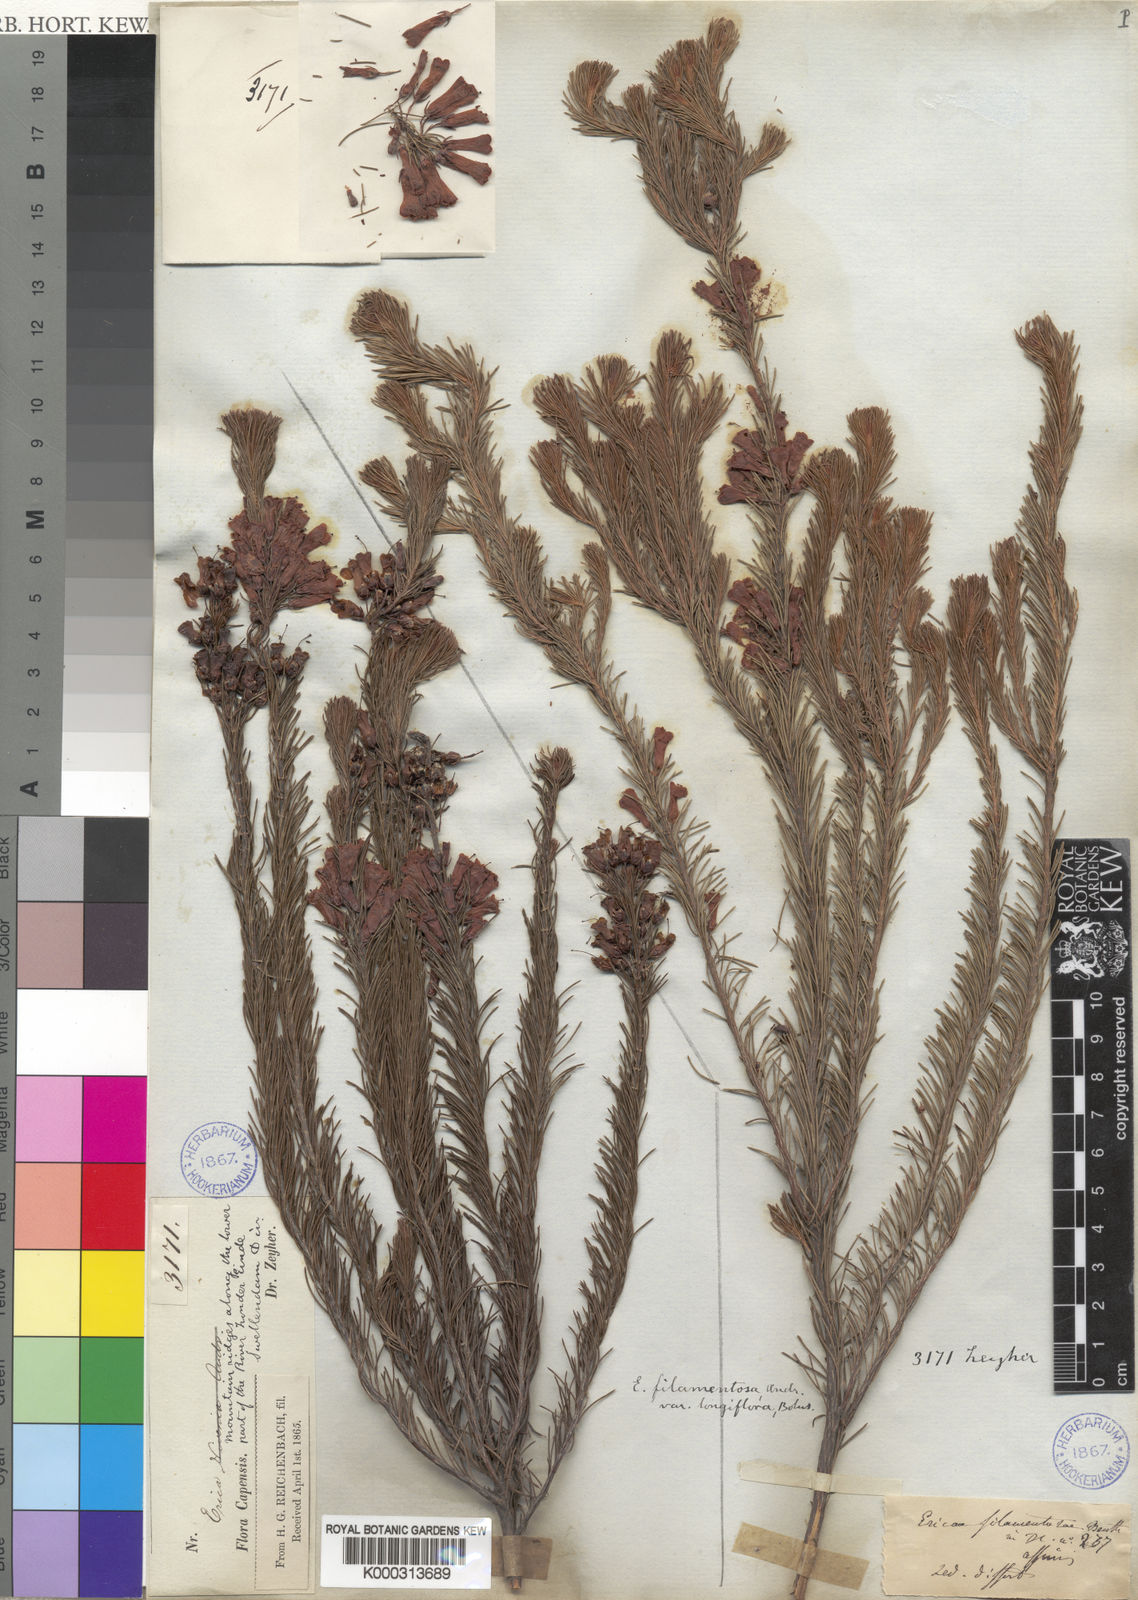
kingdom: Plantae
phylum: Tracheophyta
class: Magnoliopsida
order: Ericales
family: Ericaceae
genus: Erica
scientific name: Erica filamentosa
